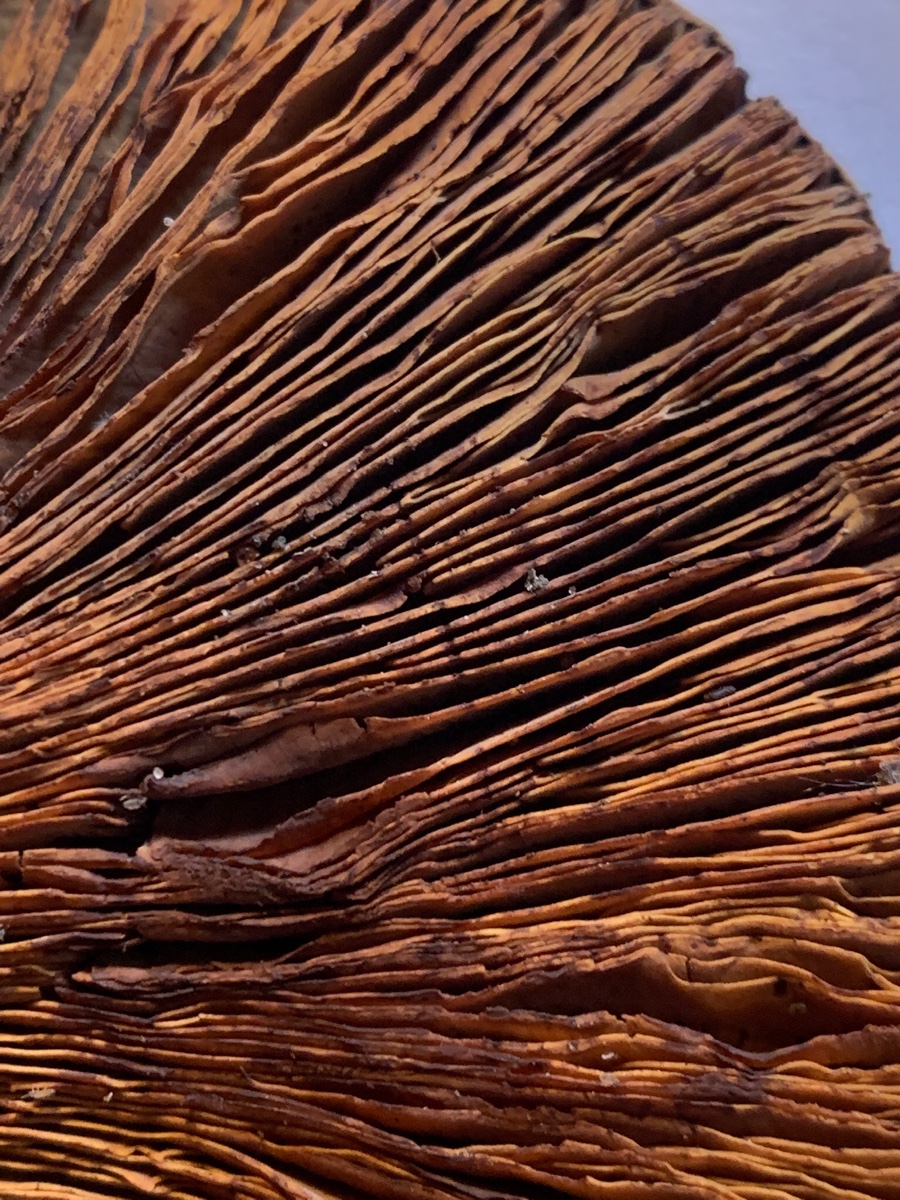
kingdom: Fungi
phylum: Basidiomycota
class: Agaricomycetes
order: Boletales
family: Paxillaceae
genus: Paxillus
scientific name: Paxillus
